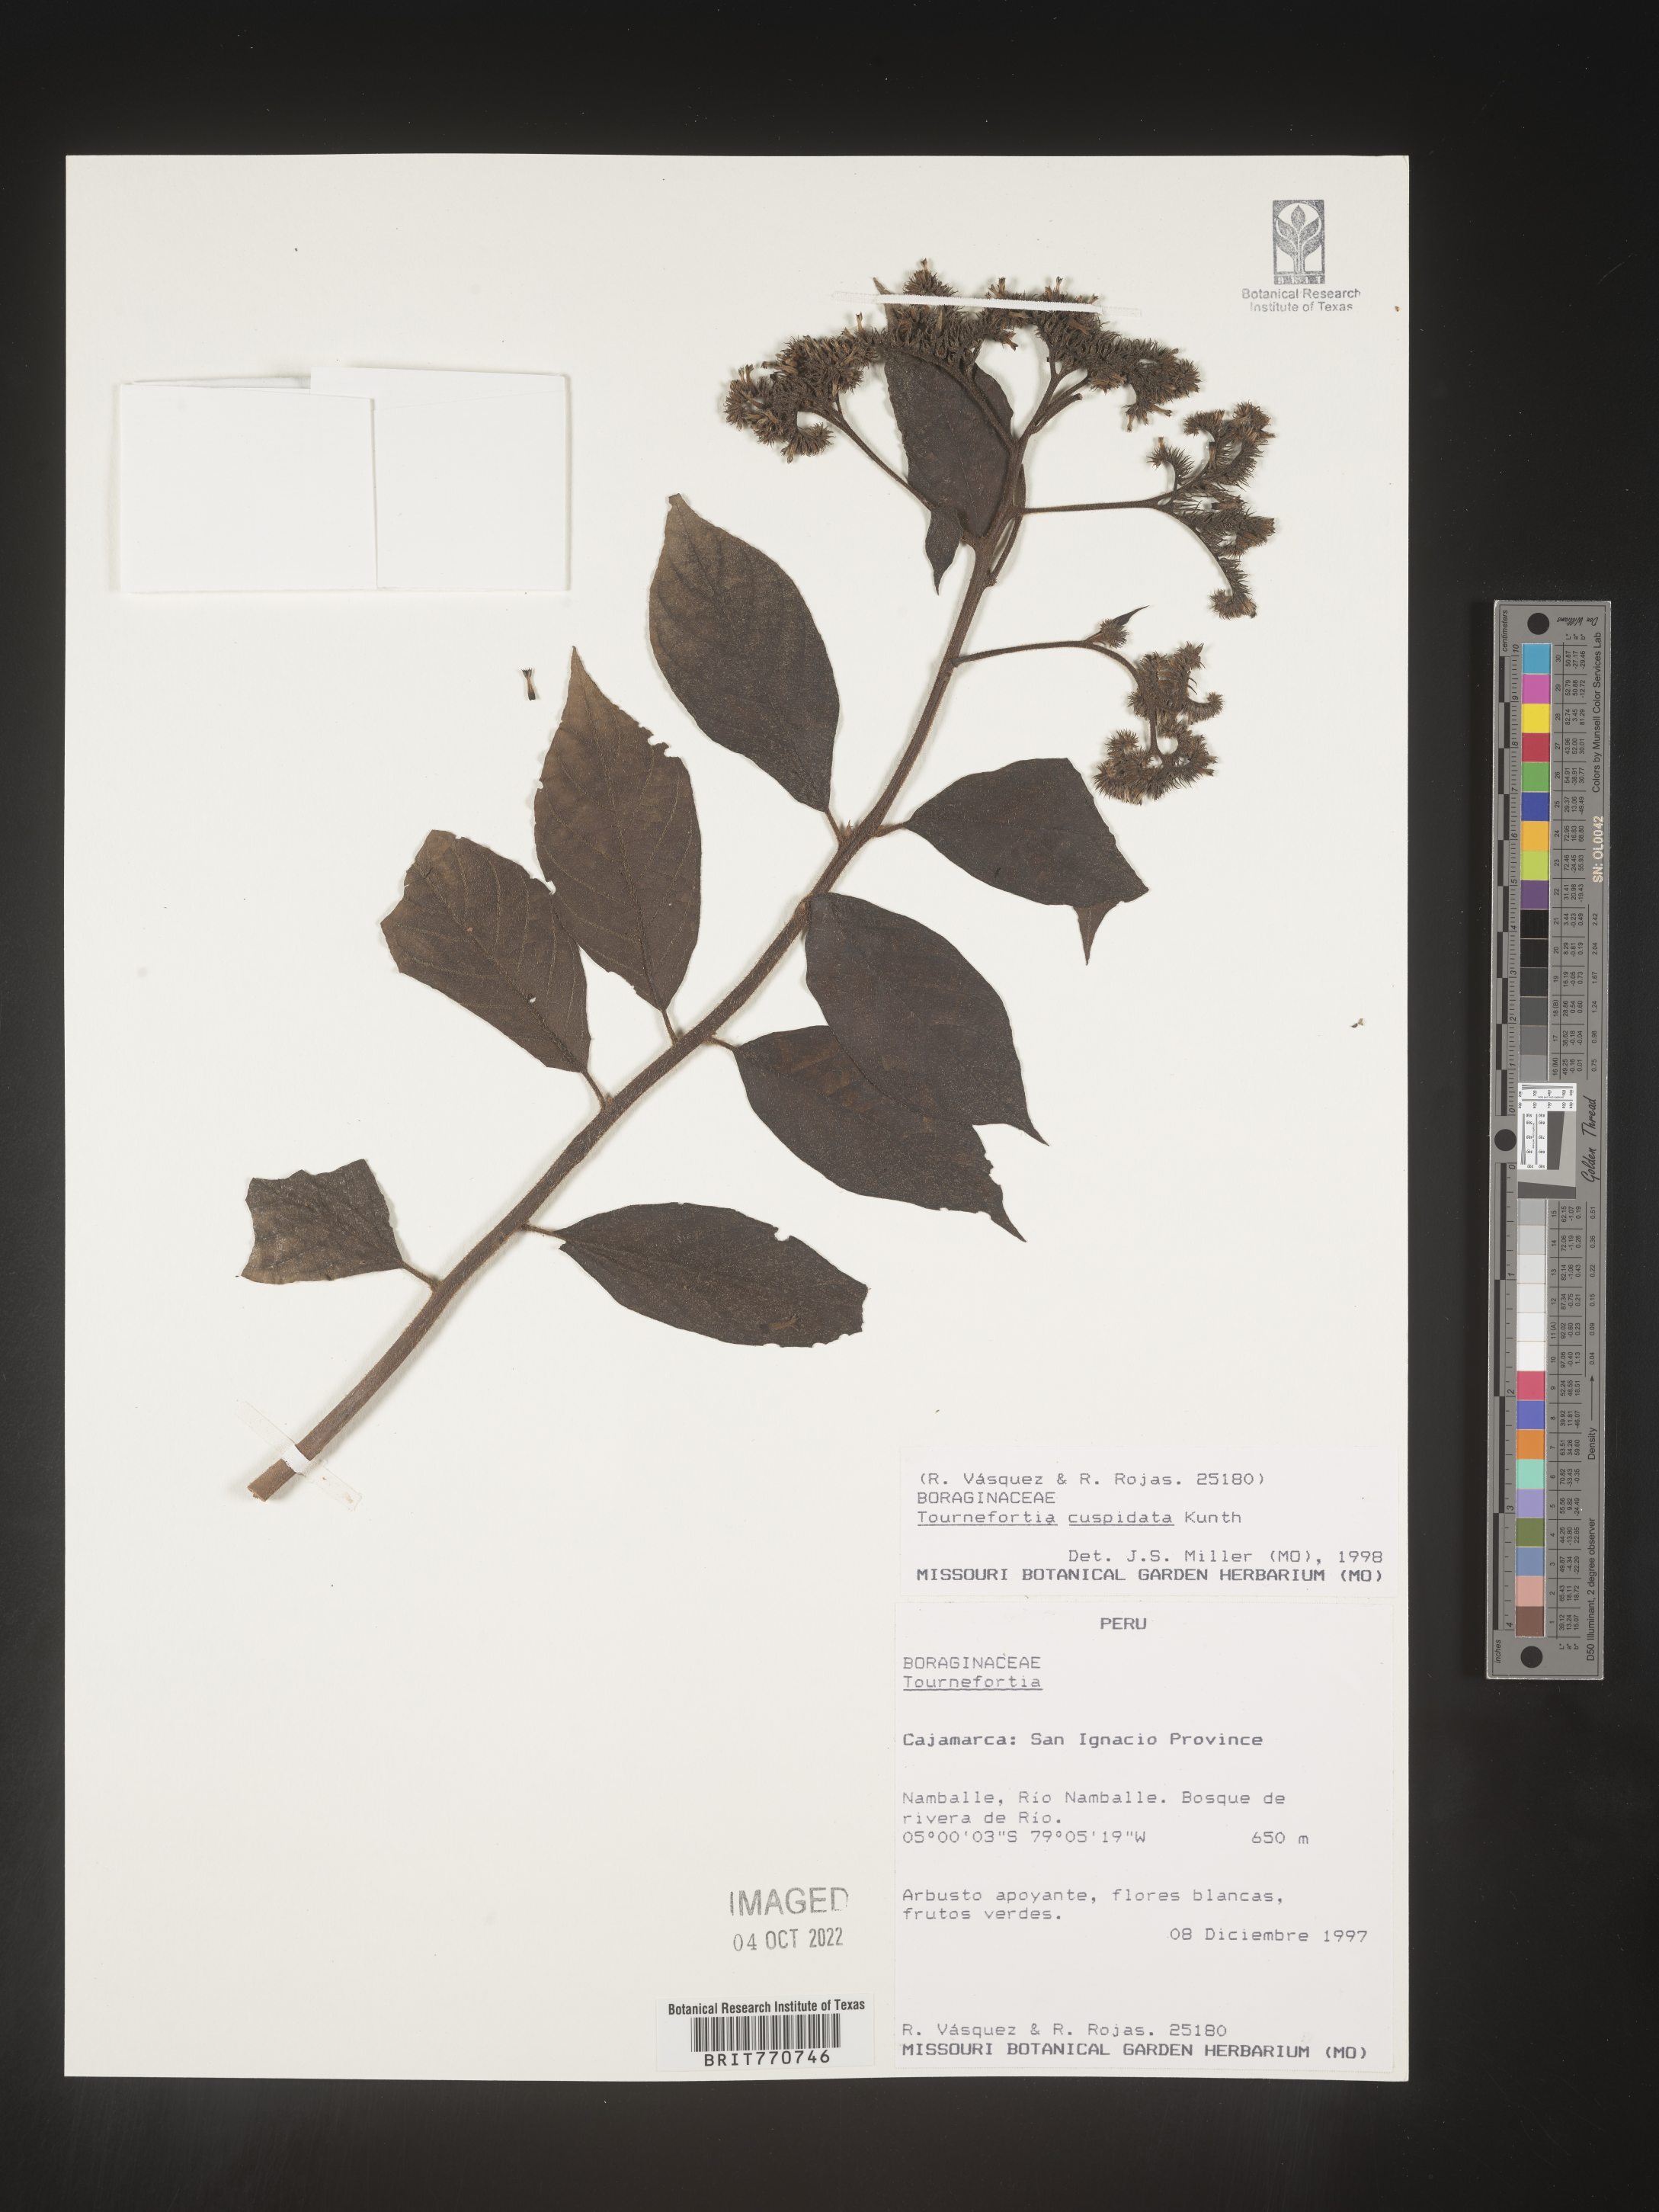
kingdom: Plantae
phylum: Tracheophyta
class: Magnoliopsida
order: Boraginales
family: Heliotropiaceae
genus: Tournefortia
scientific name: Tournefortia
